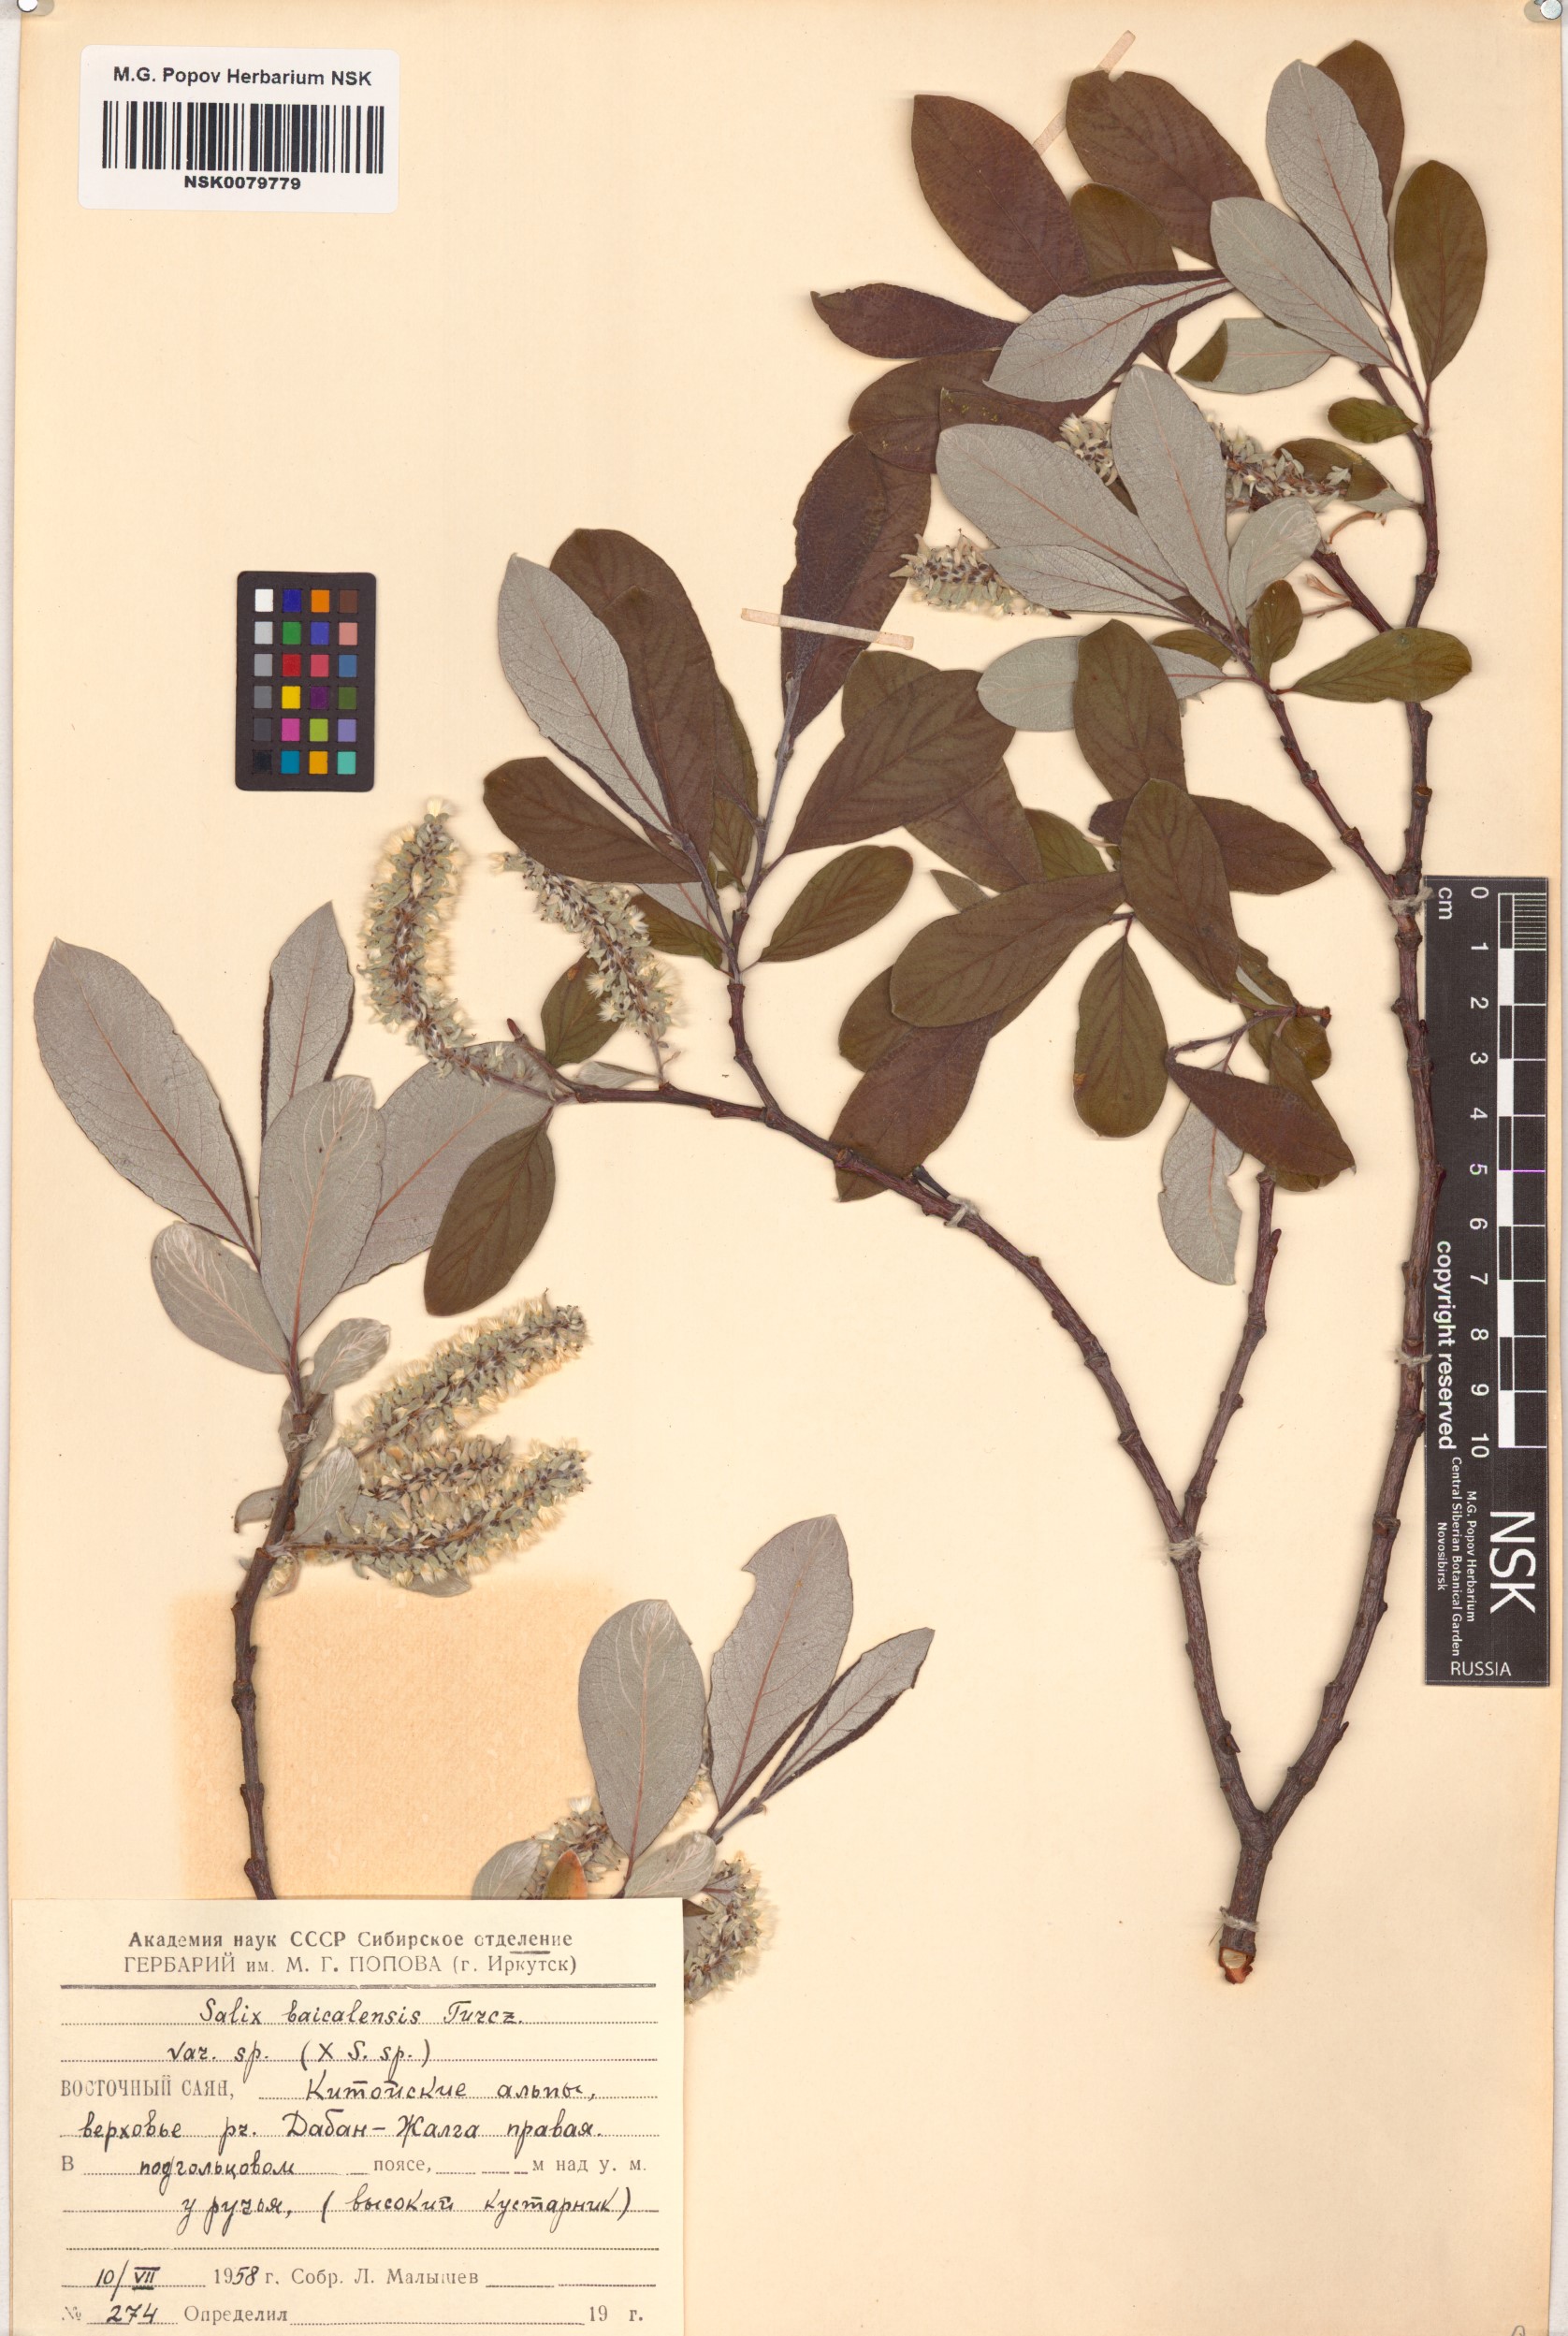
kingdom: Plantae
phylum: Tracheophyta
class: Magnoliopsida
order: Malpighiales
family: Salicaceae
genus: Salix
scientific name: Salix krylovii
